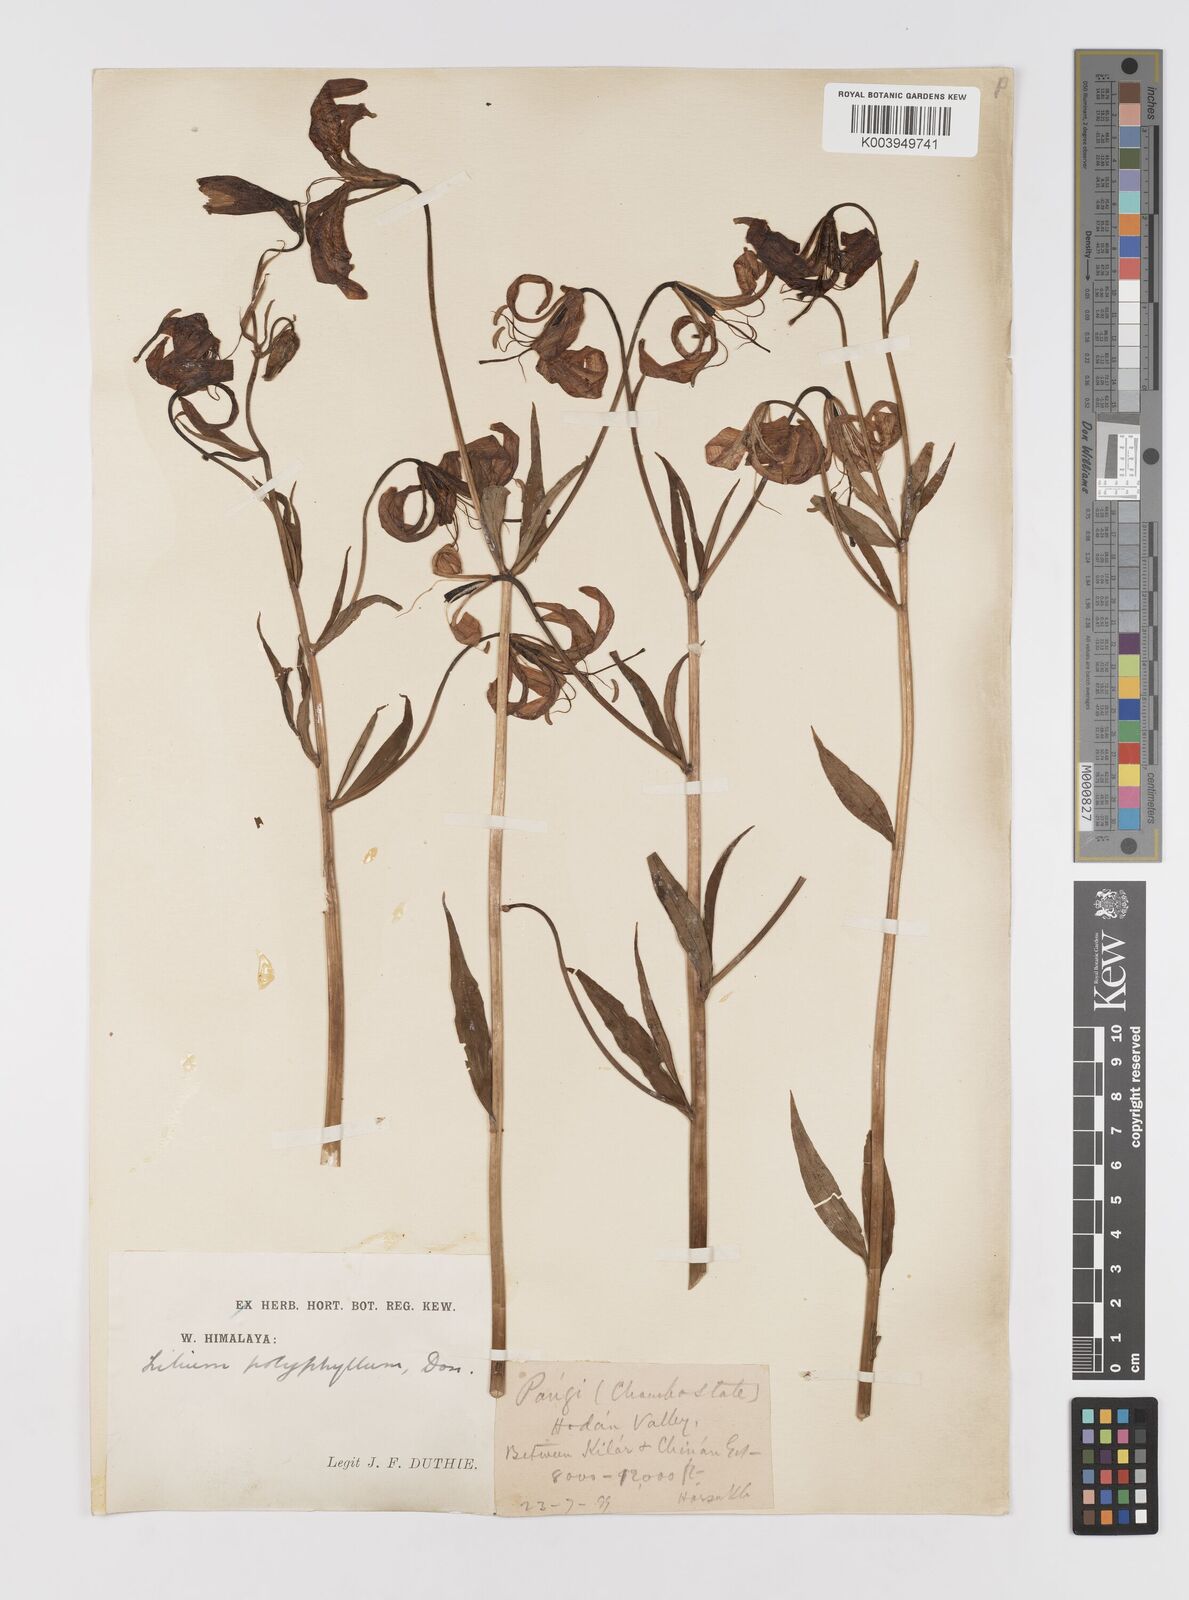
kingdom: Plantae
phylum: Tracheophyta
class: Liliopsida
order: Liliales
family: Liliaceae
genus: Lilium
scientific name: Lilium polyphyllum
